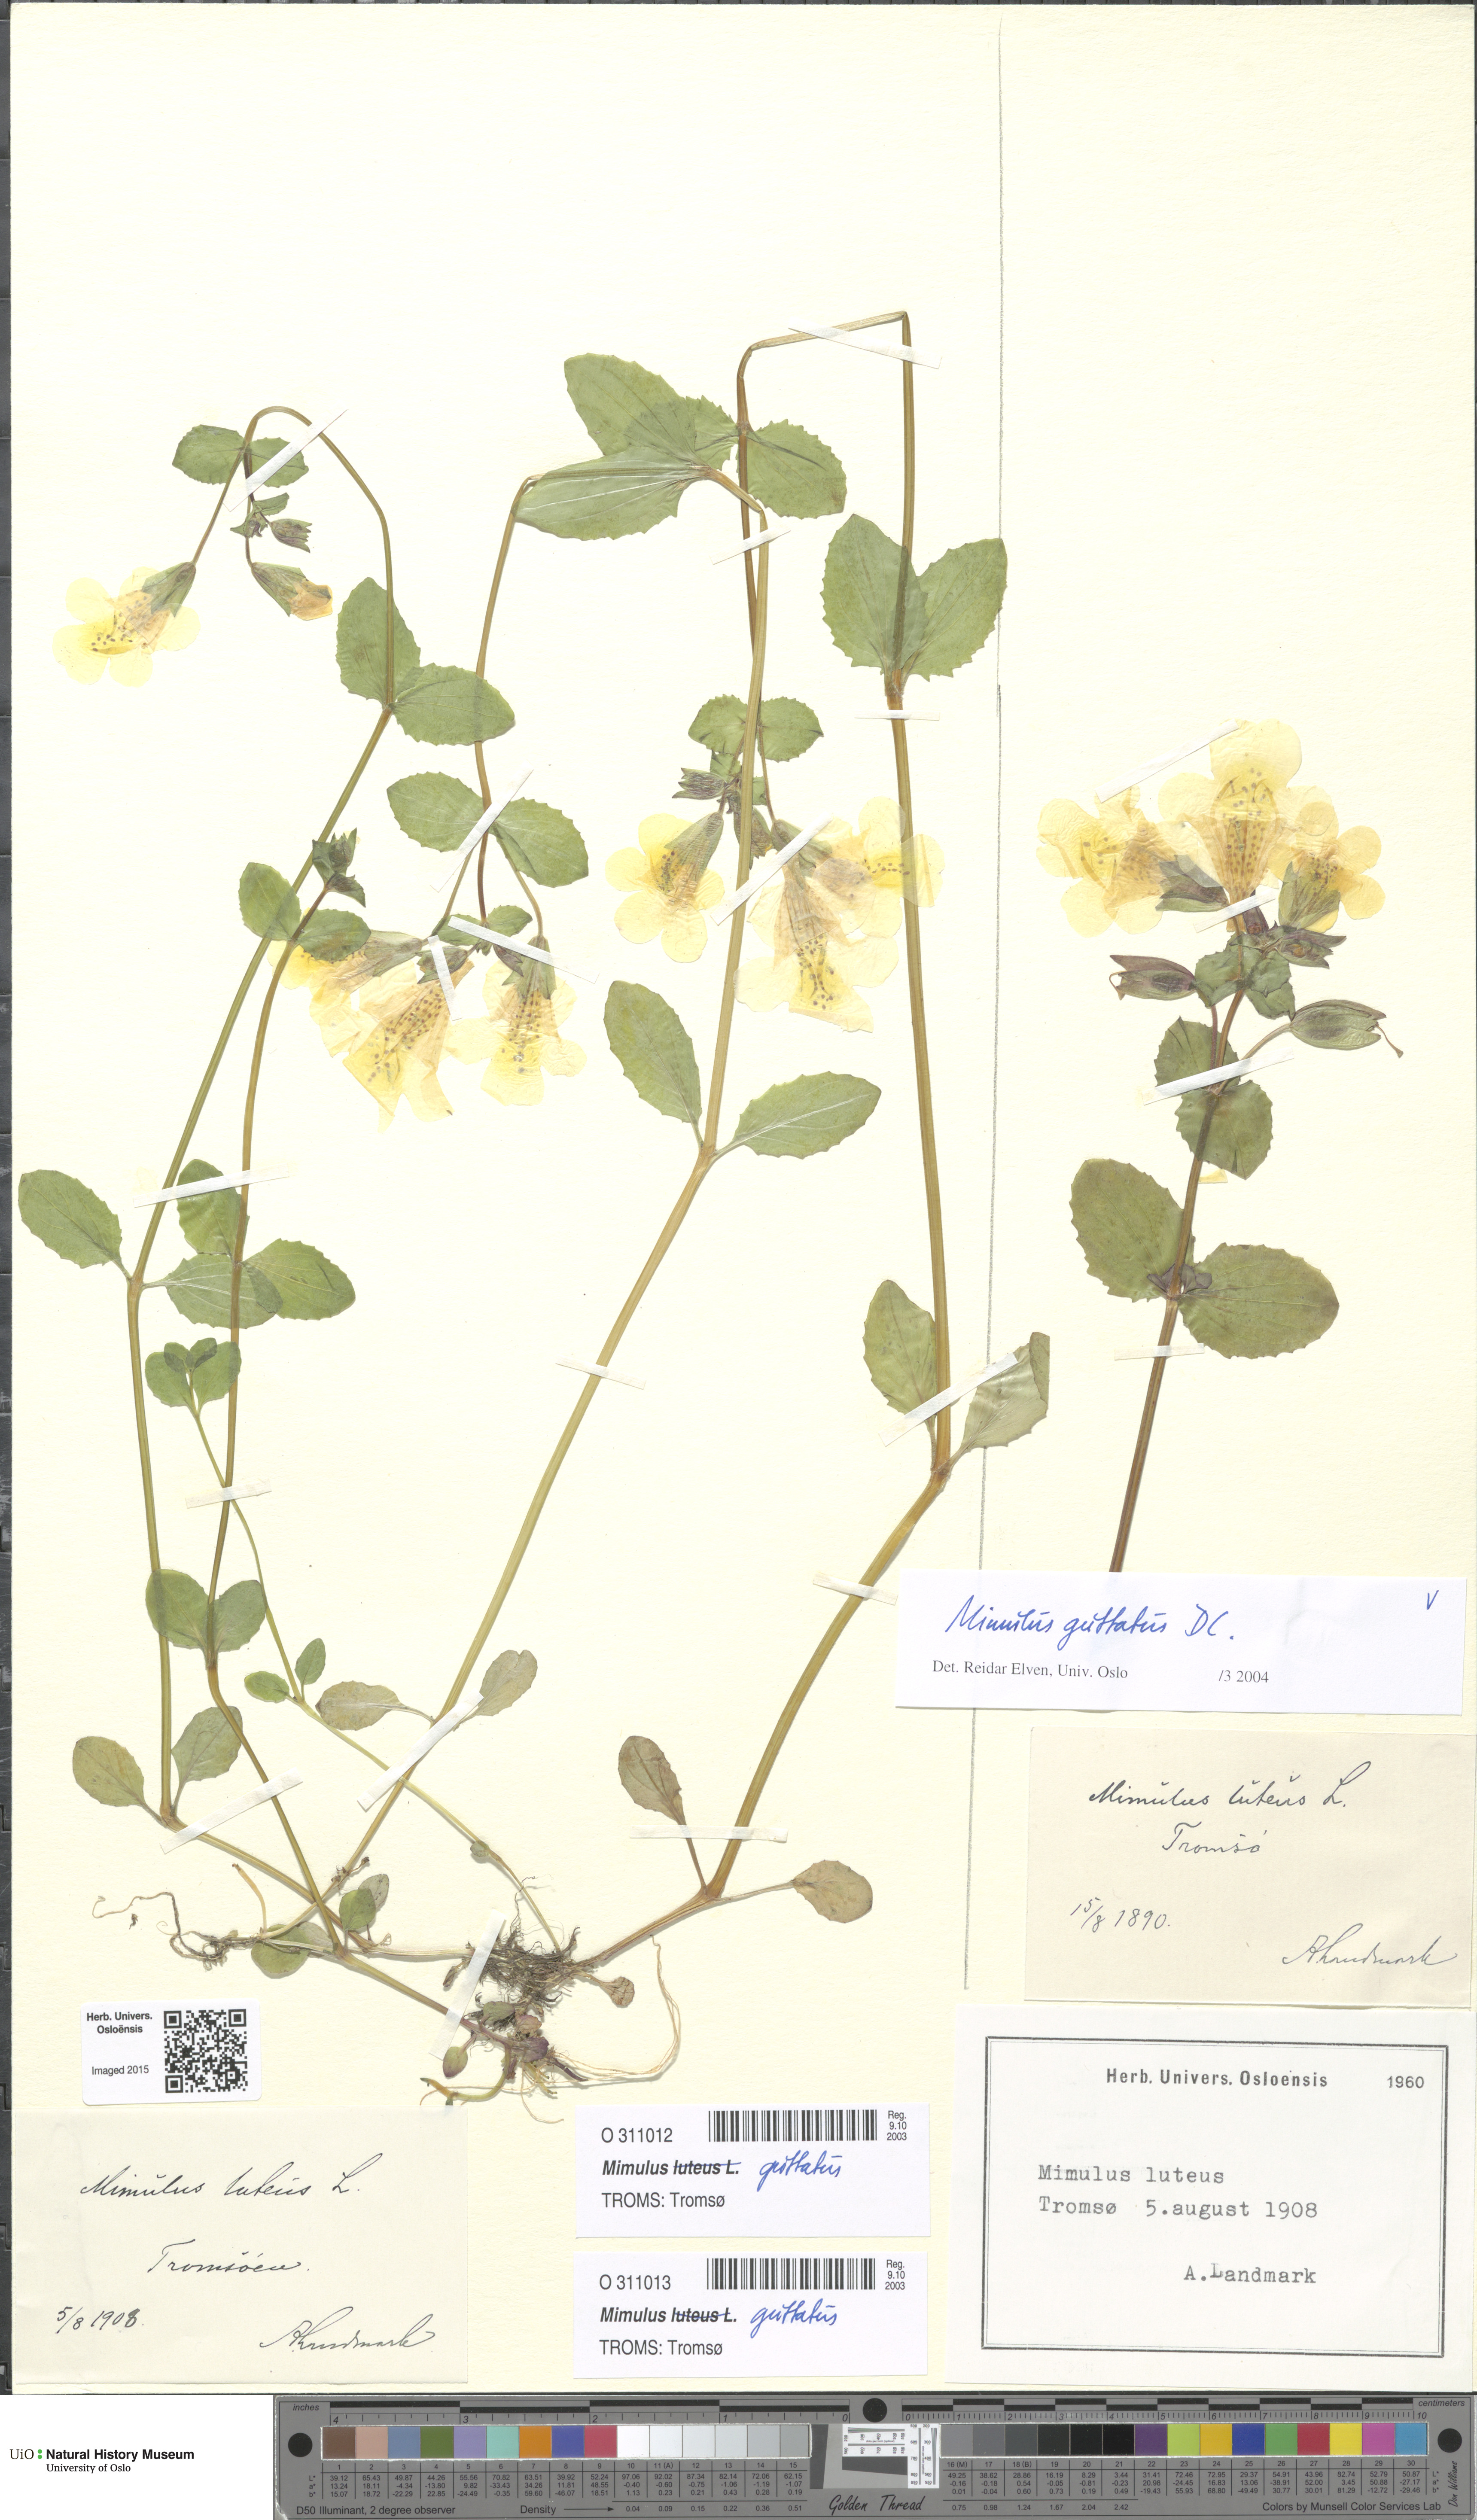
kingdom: Plantae
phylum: Tracheophyta
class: Magnoliopsida
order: Lamiales
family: Phrymaceae
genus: Erythranthe
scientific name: Erythranthe guttata
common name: Monkeyflower
